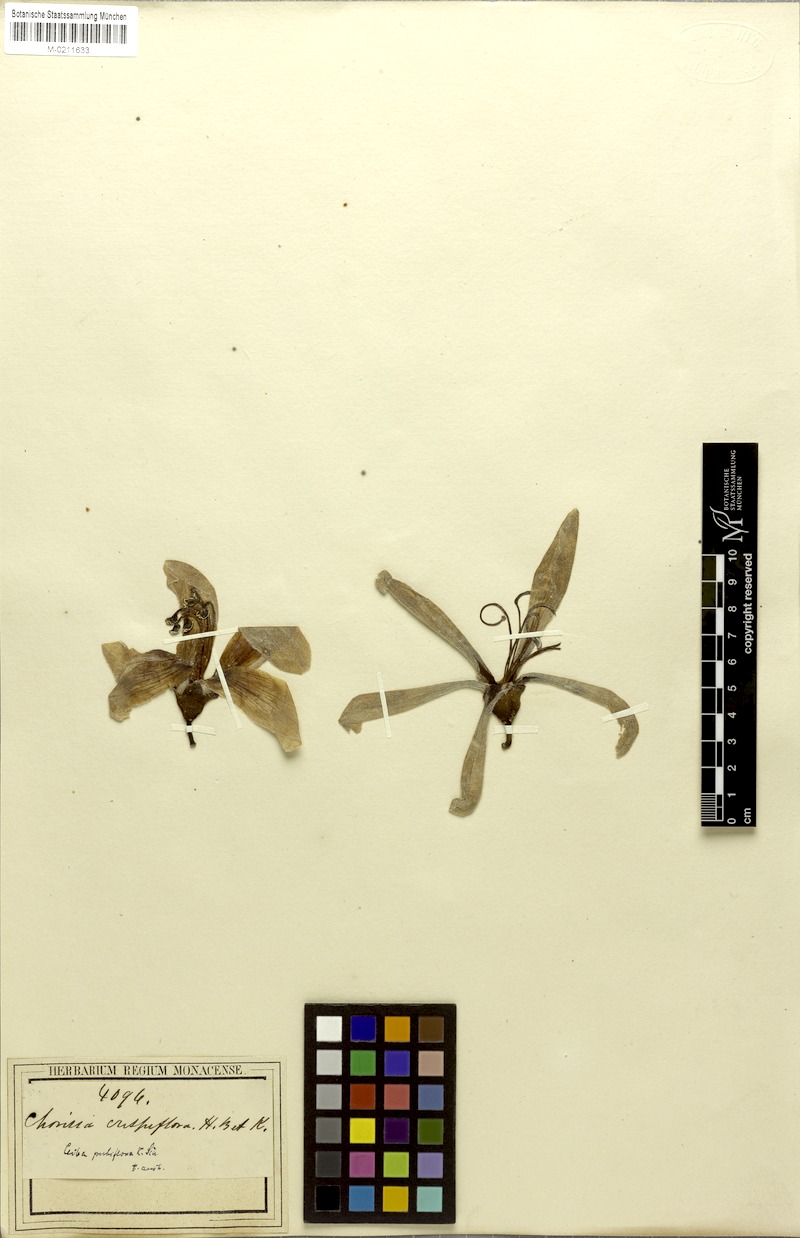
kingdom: Plantae
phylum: Tracheophyta
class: Magnoliopsida
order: Malvales
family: Malvaceae
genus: Ceiba
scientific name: Ceiba pubiflora
